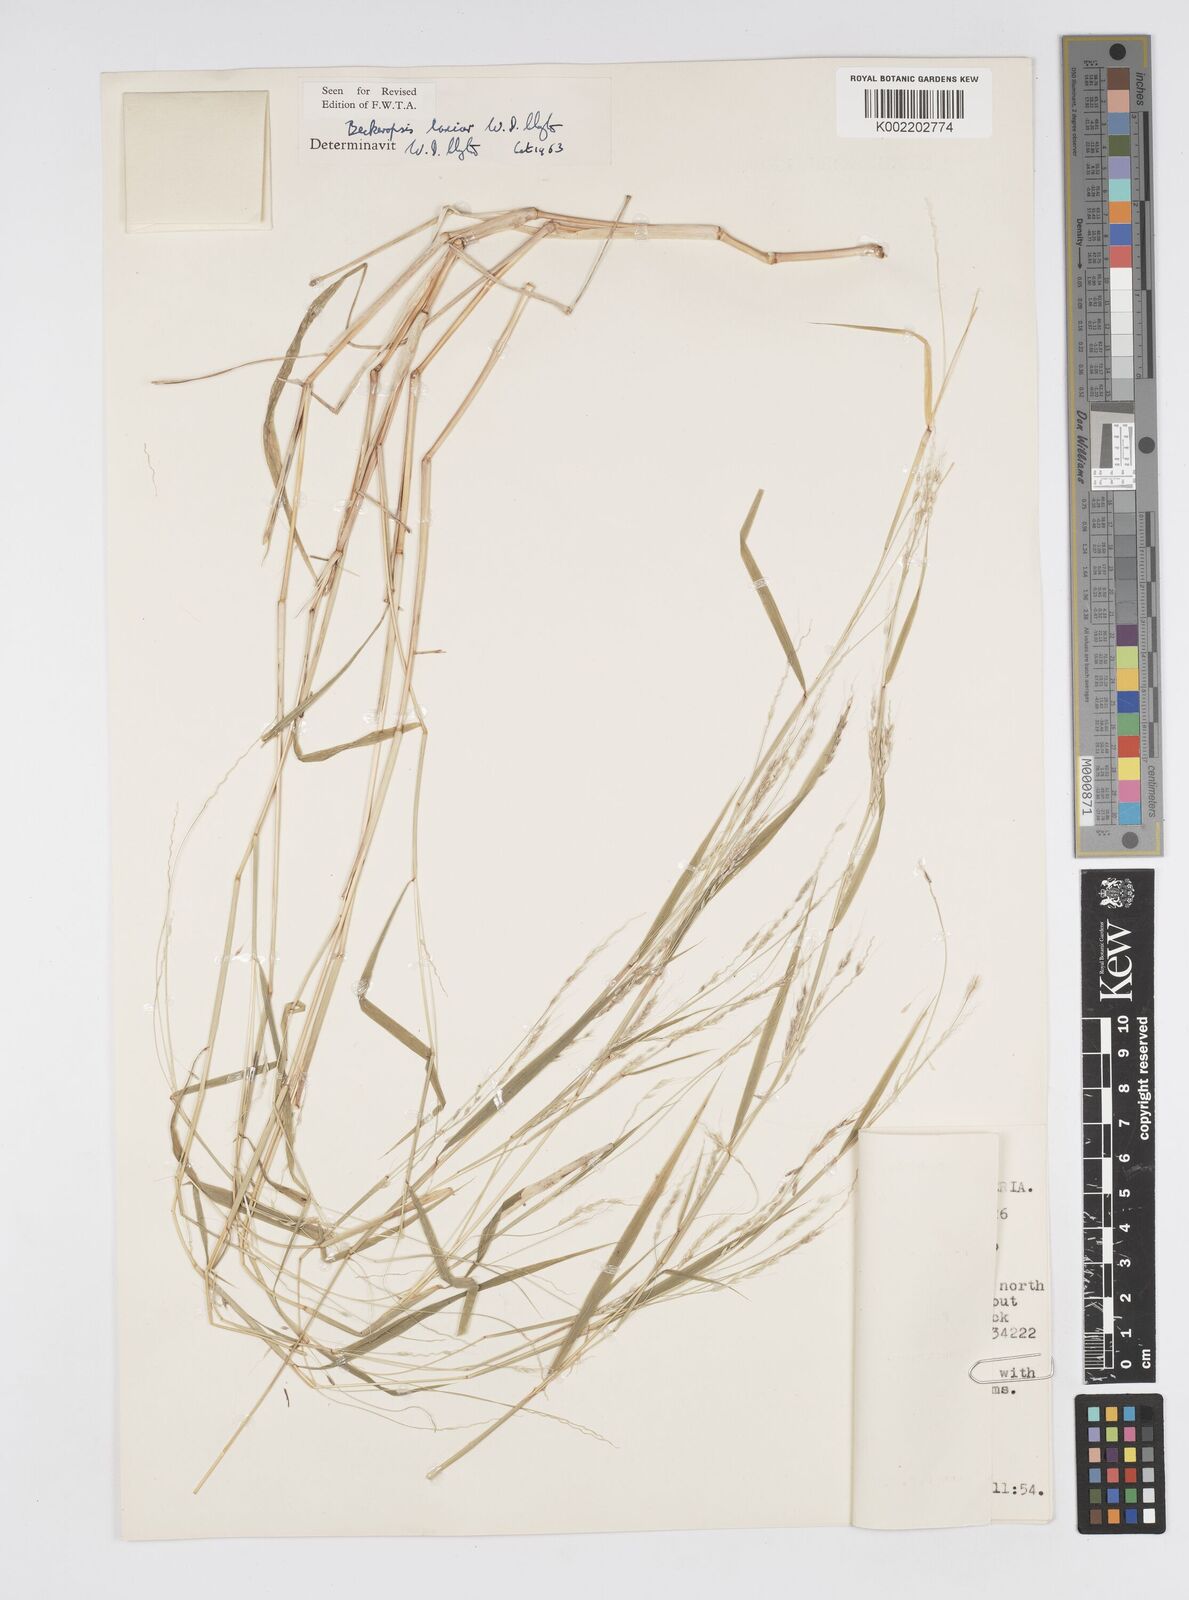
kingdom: Plantae
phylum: Tracheophyta
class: Liliopsida
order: Poales
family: Poaceae
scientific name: Poaceae
